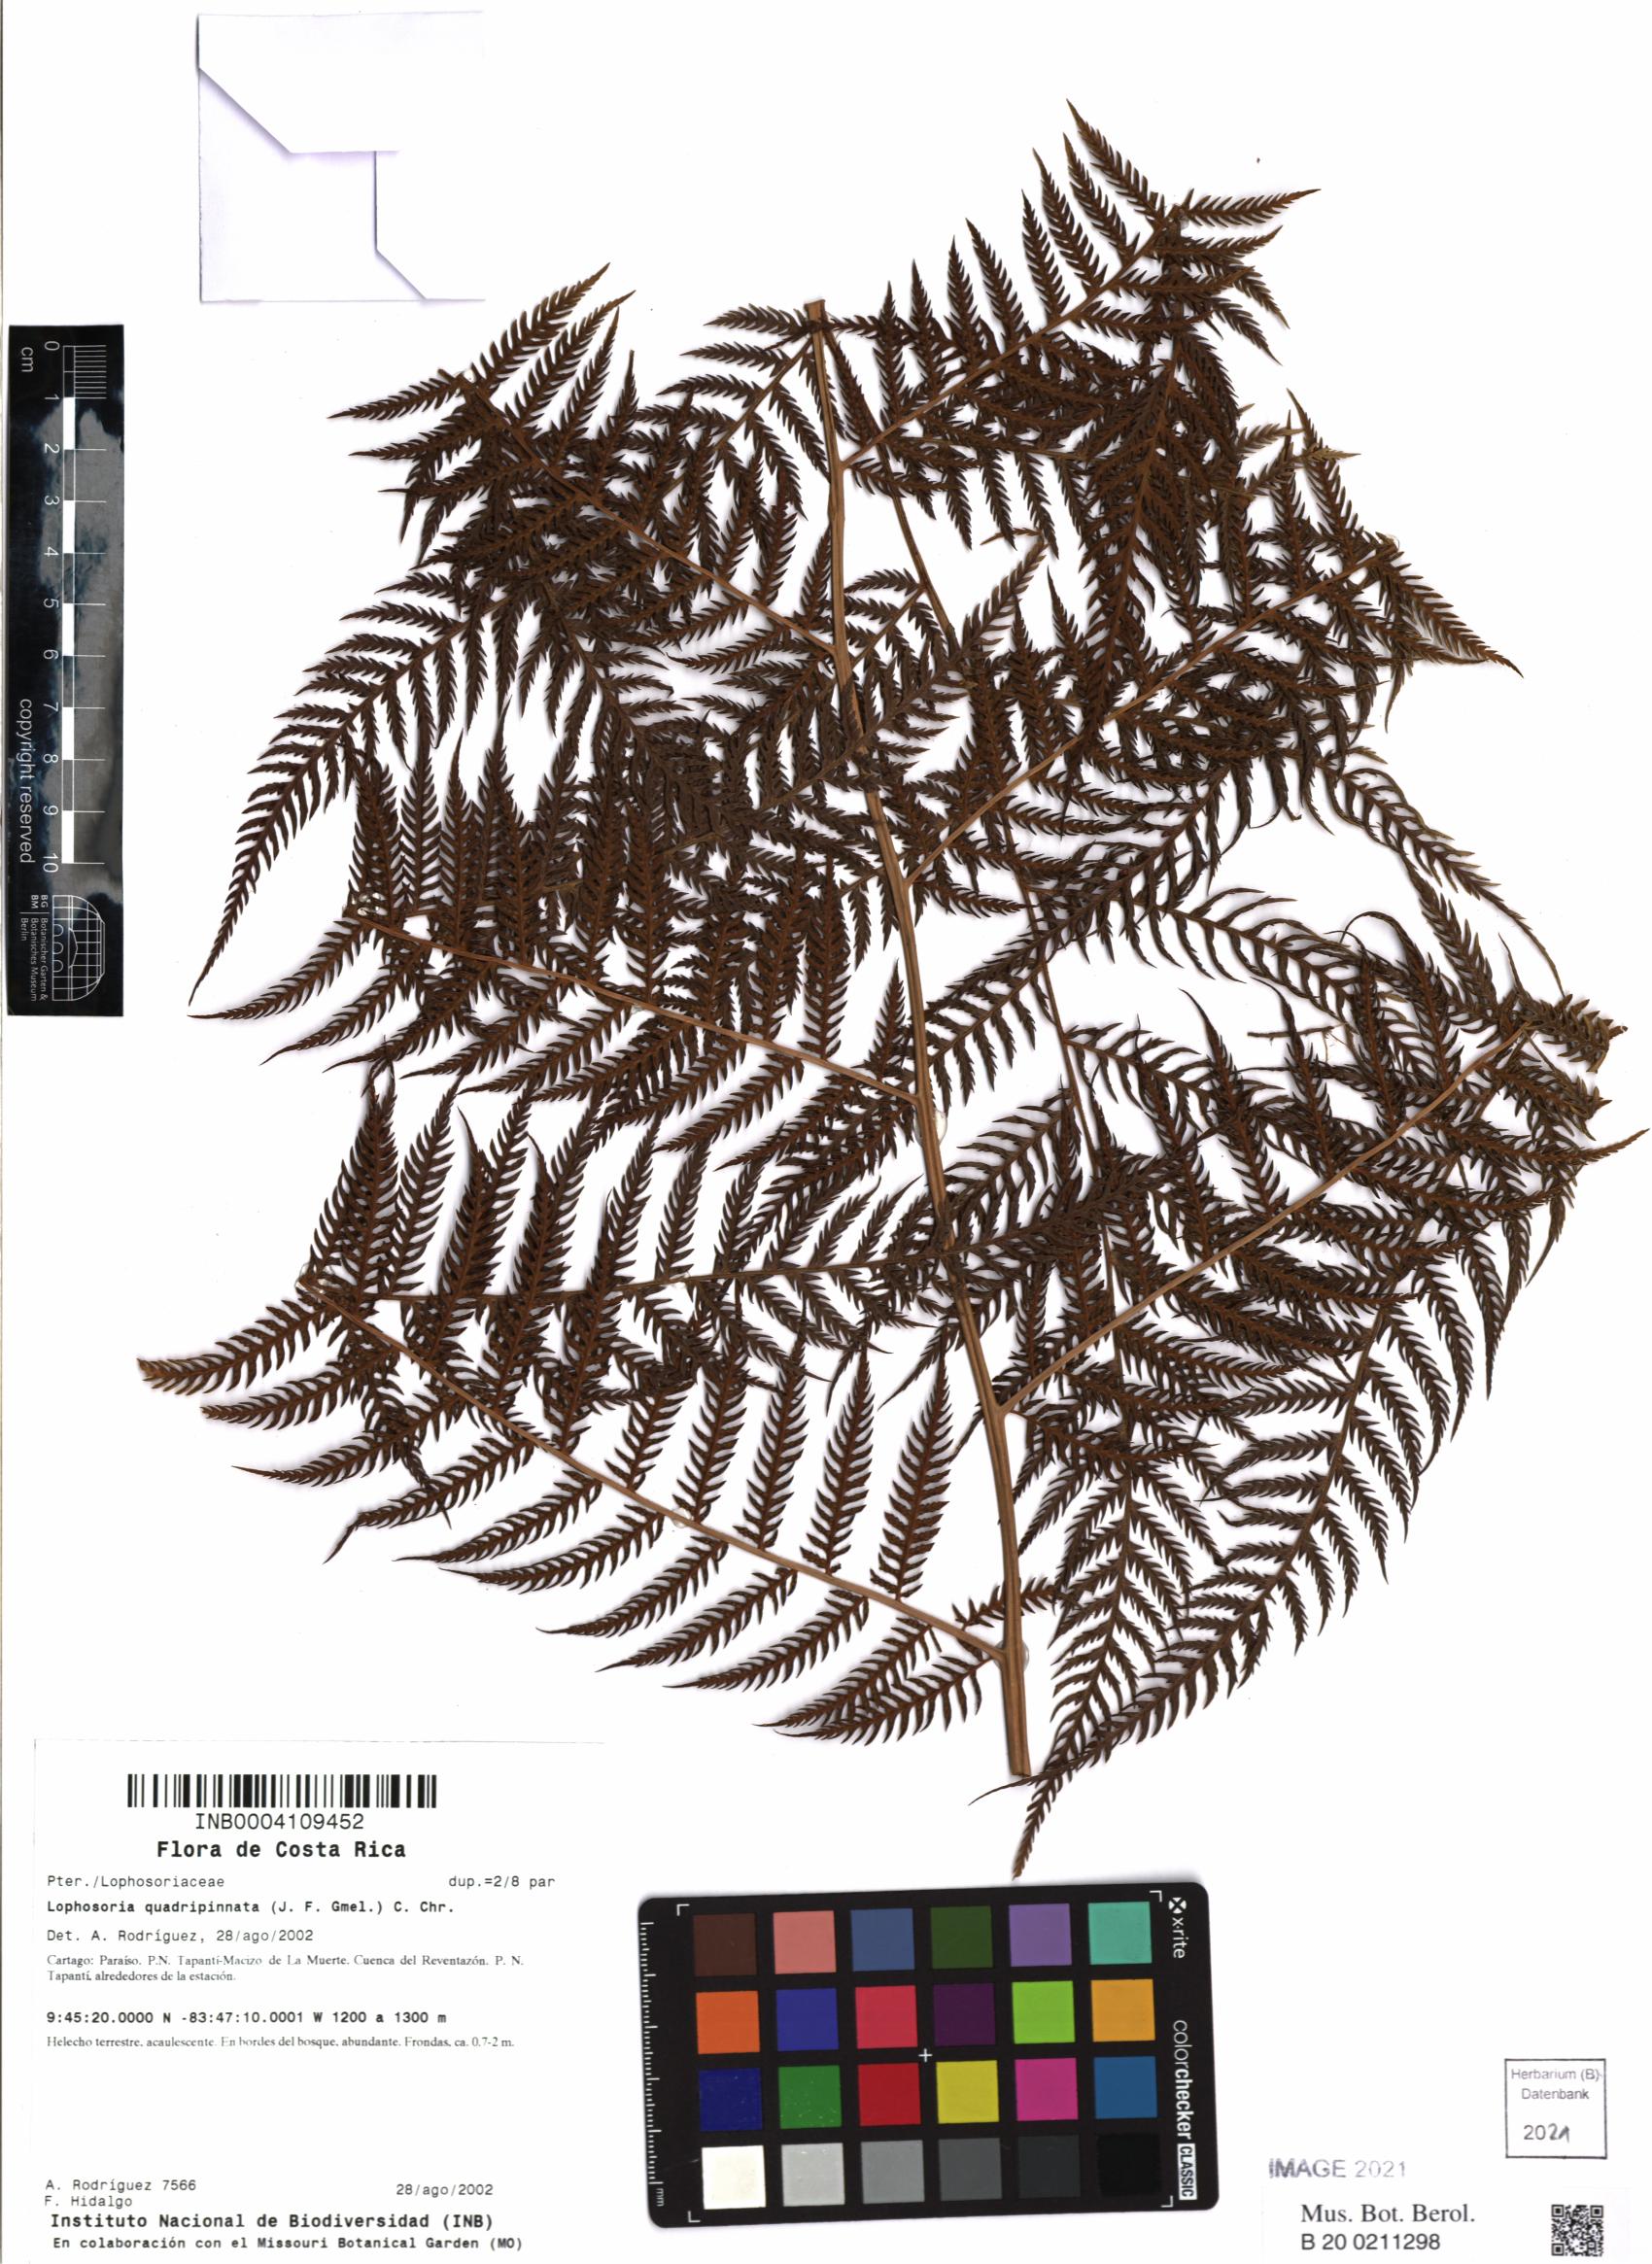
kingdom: Plantae
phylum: Tracheophyta
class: Polypodiopsida
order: Cyatheales
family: Dicksoniaceae
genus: Lophosoria
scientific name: Lophosoria quadripinnata
